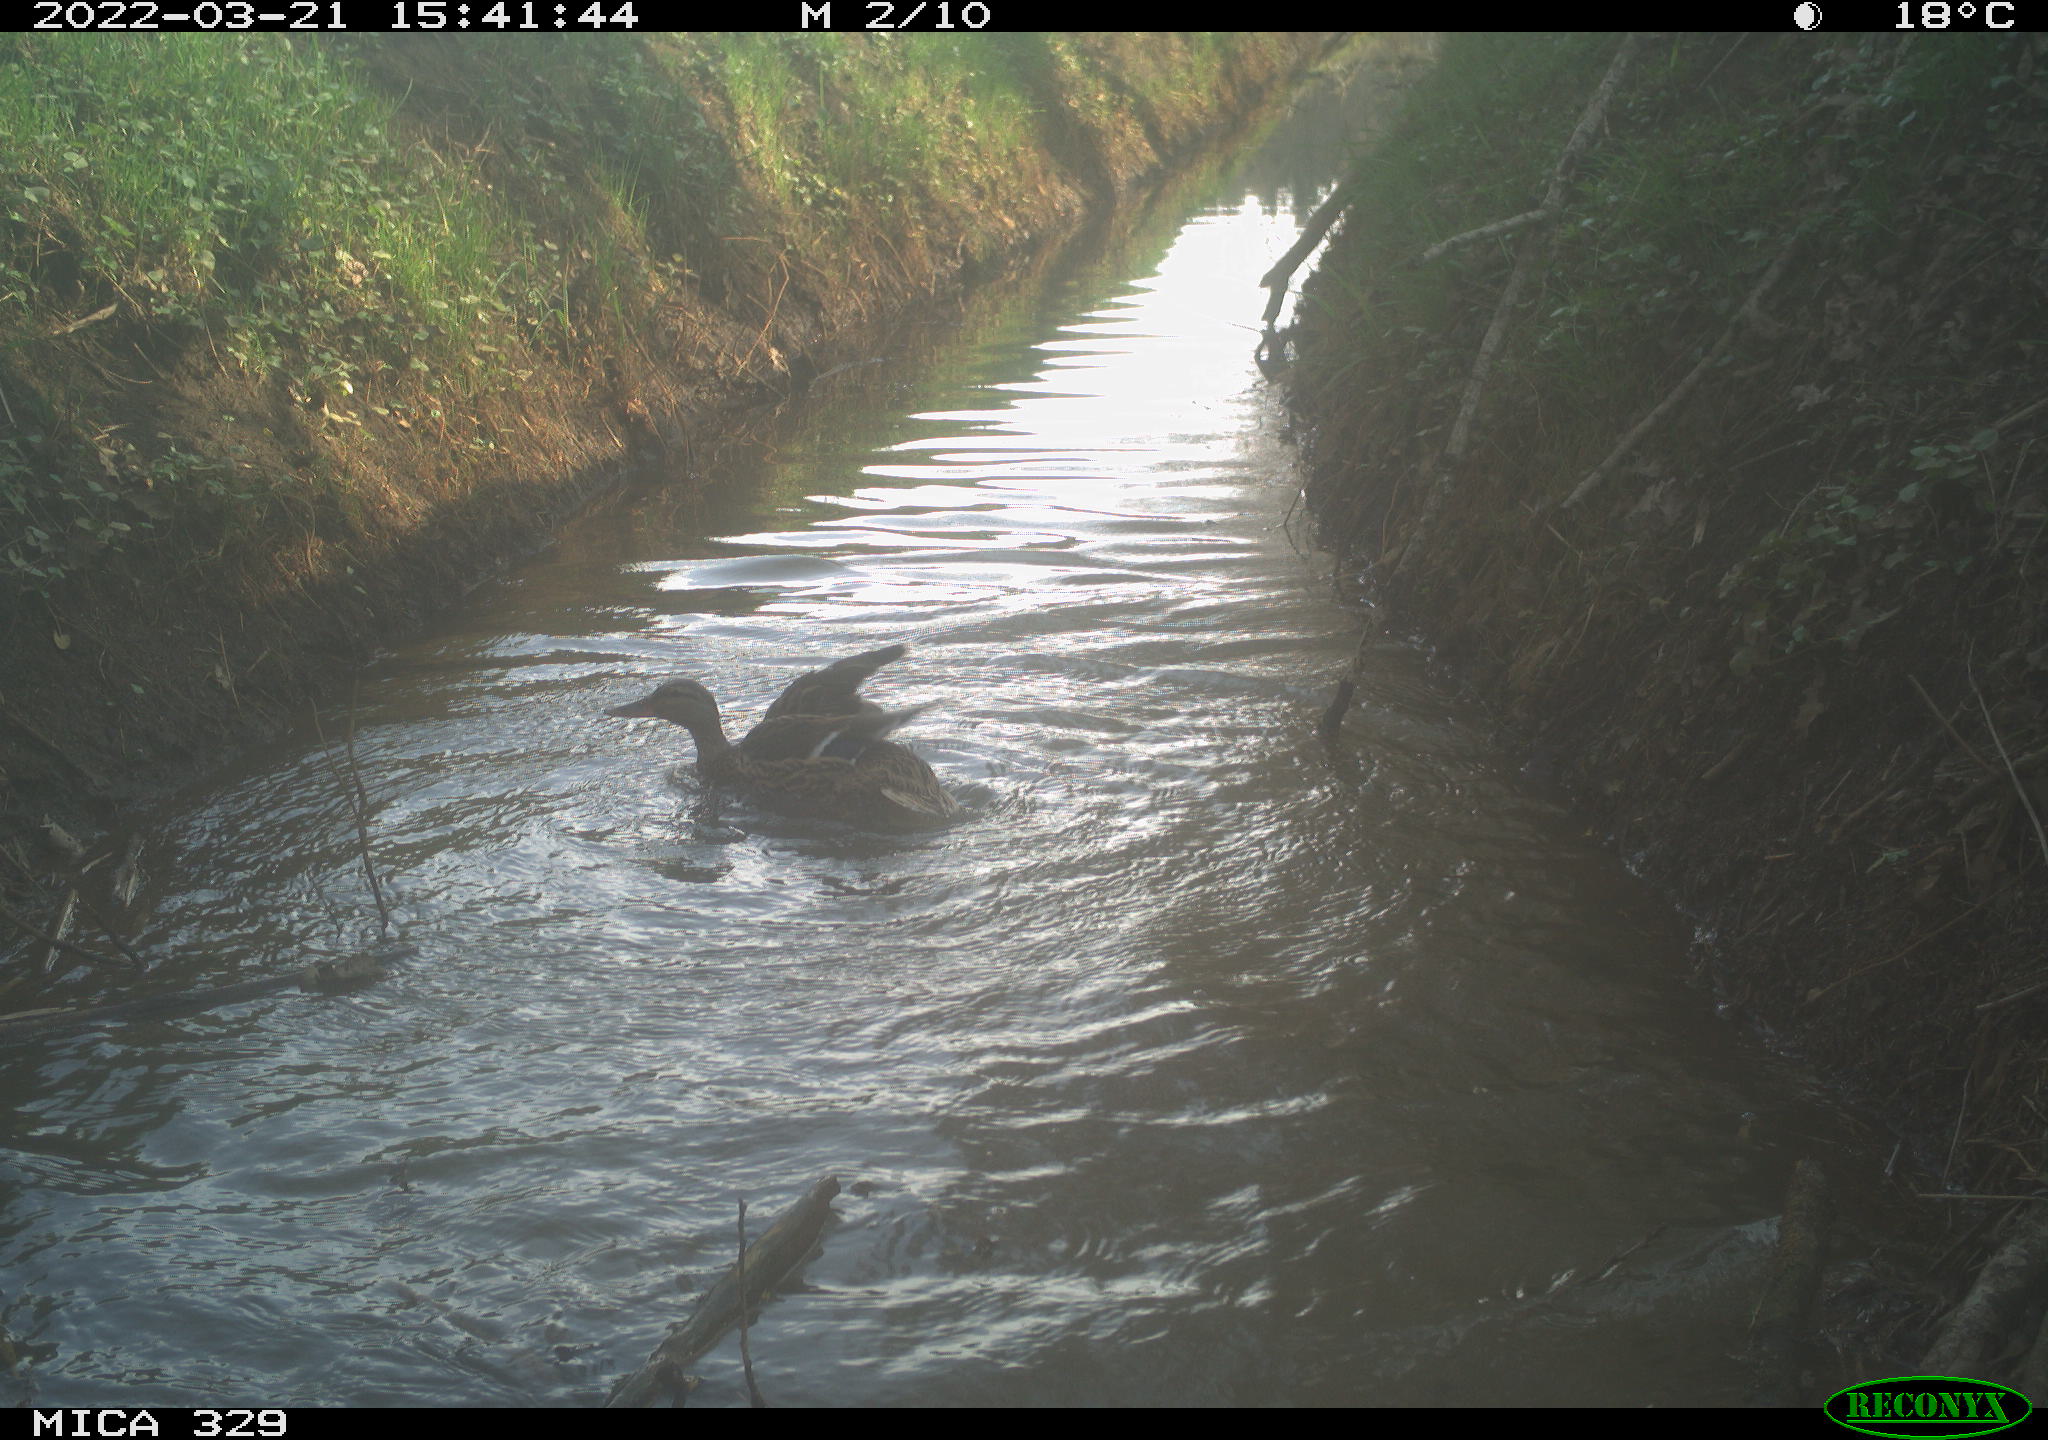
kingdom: Animalia
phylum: Chordata
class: Aves
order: Anseriformes
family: Anatidae
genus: Anas
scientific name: Anas platyrhynchos
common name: Mallard
